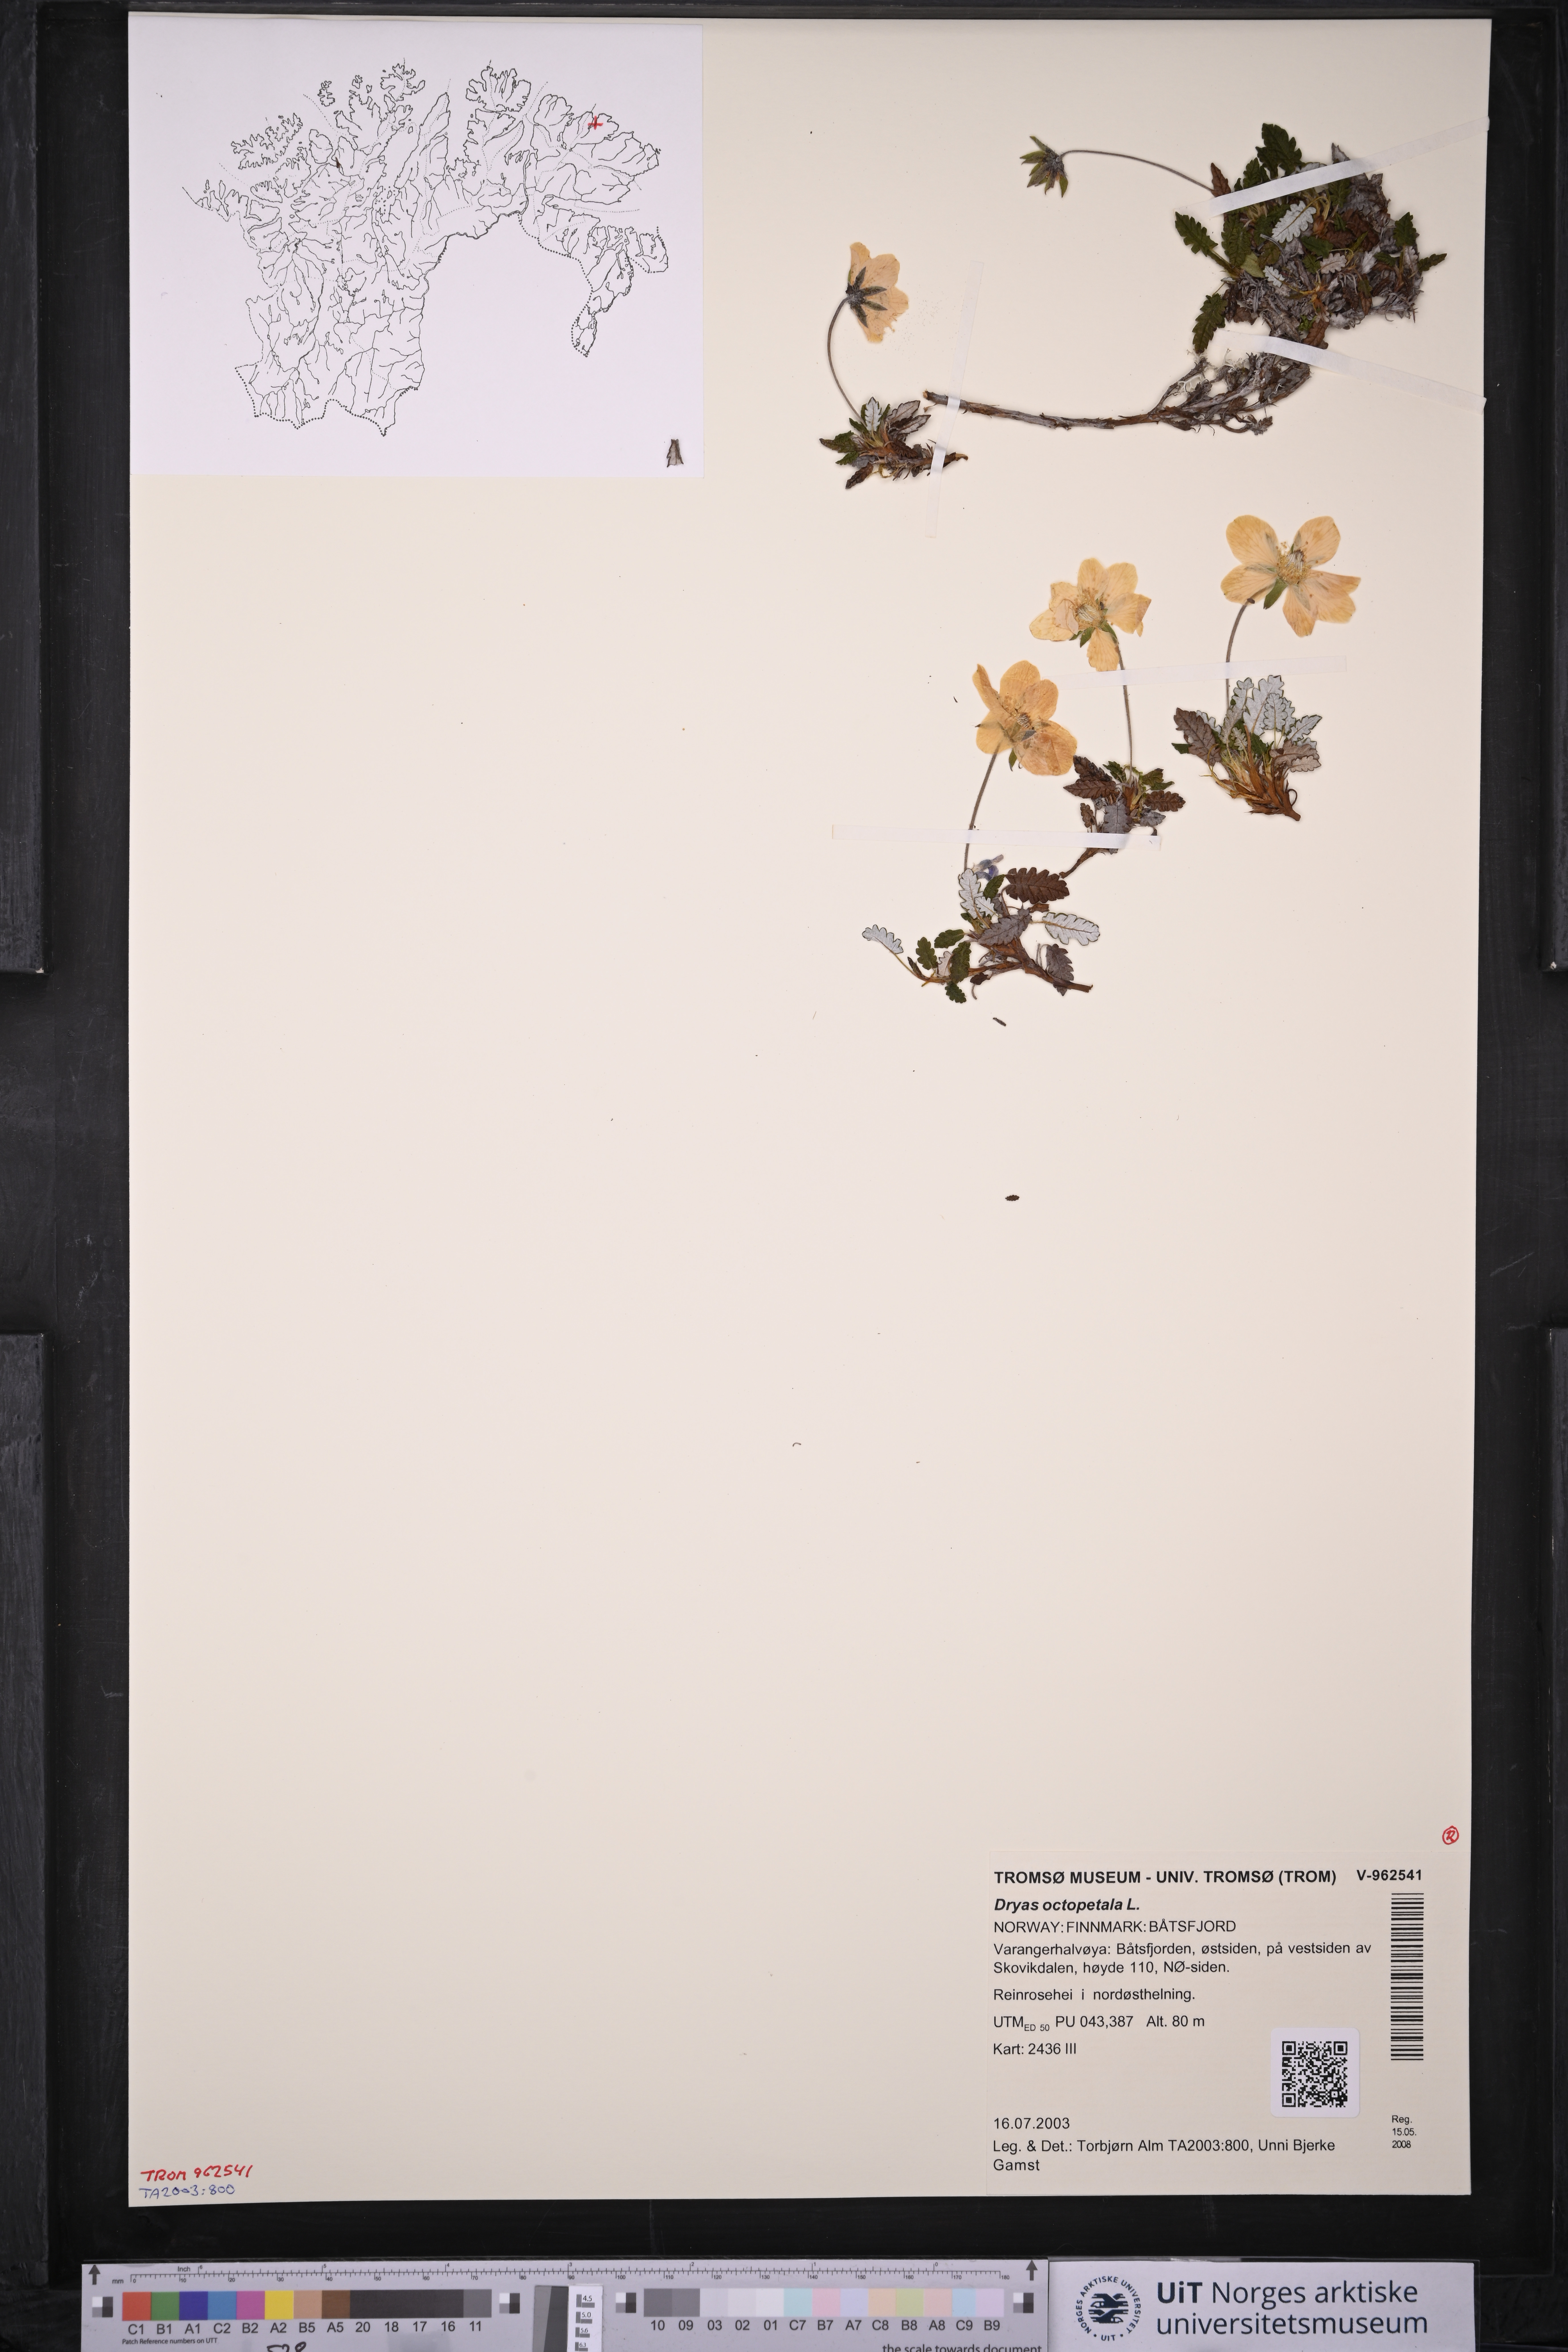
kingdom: Plantae
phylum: Tracheophyta
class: Magnoliopsida
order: Rosales
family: Rosaceae
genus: Dryas
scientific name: Dryas octopetala
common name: Eight-petal mountain-avens
